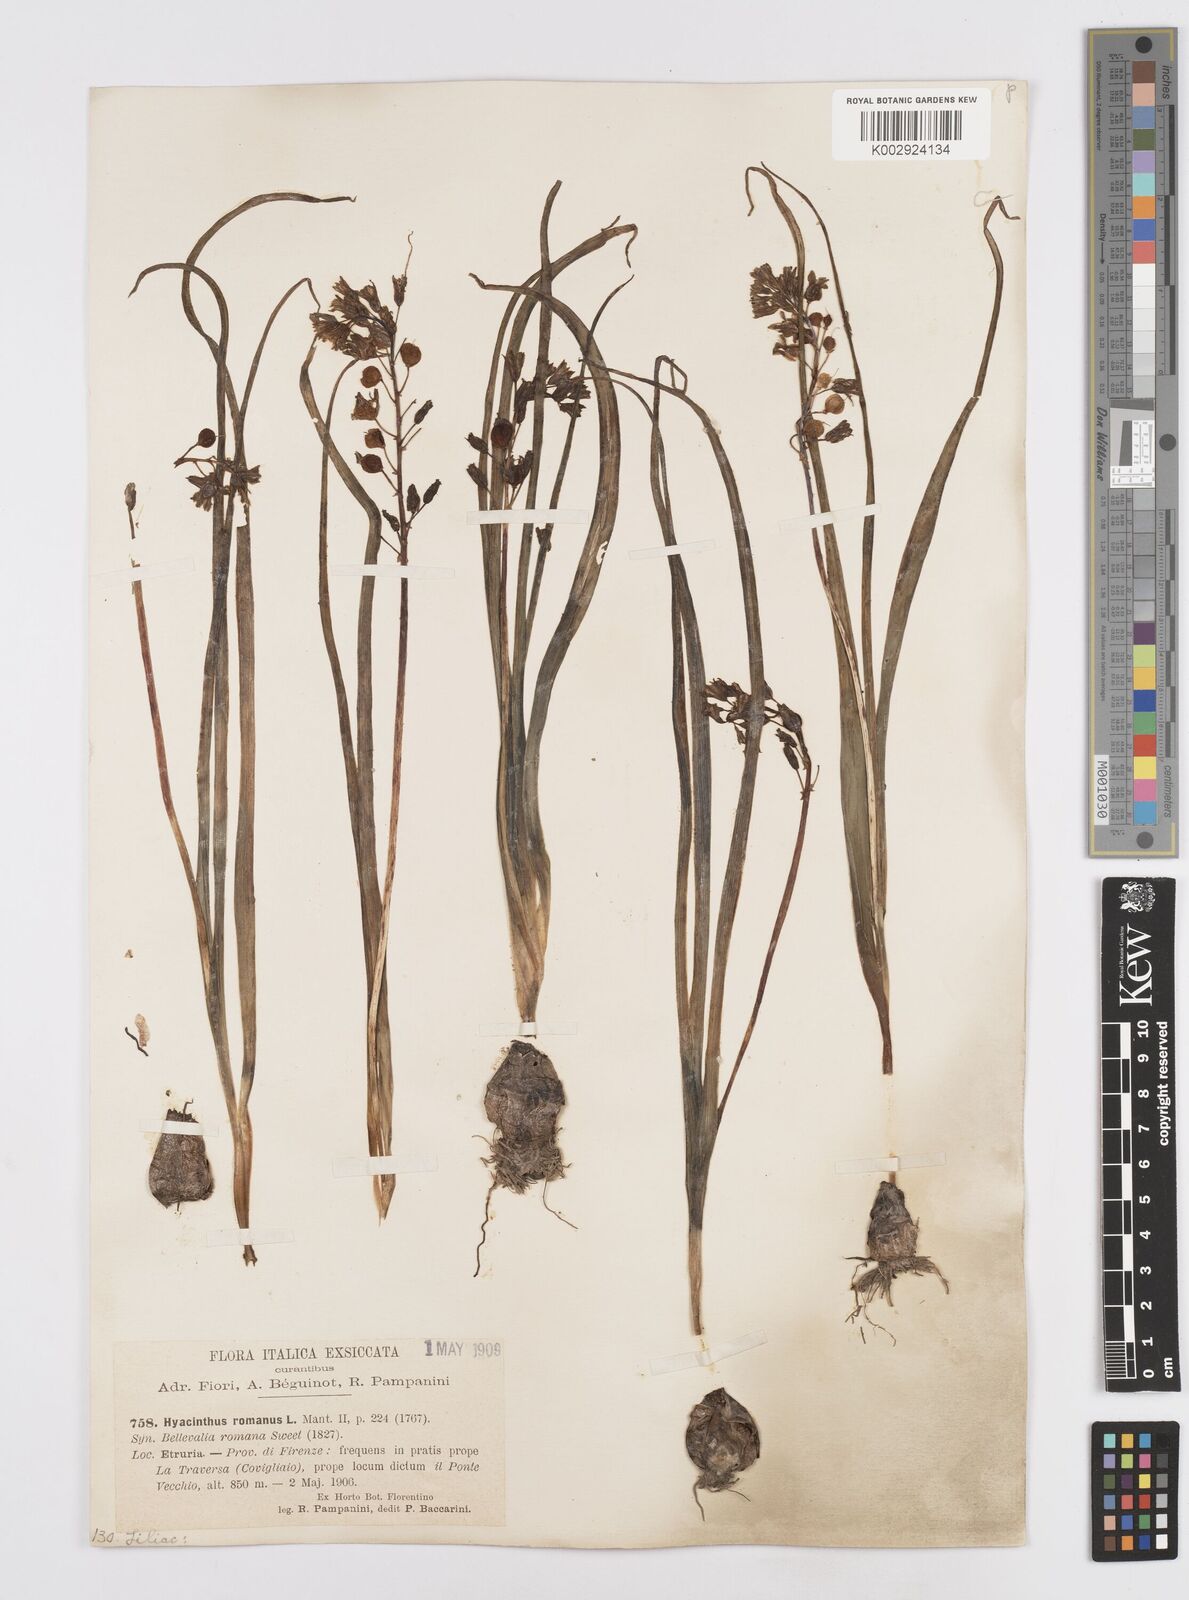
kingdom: Plantae
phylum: Tracheophyta
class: Liliopsida
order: Asparagales
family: Asparagaceae
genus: Bellevalia
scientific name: Bellevalia
